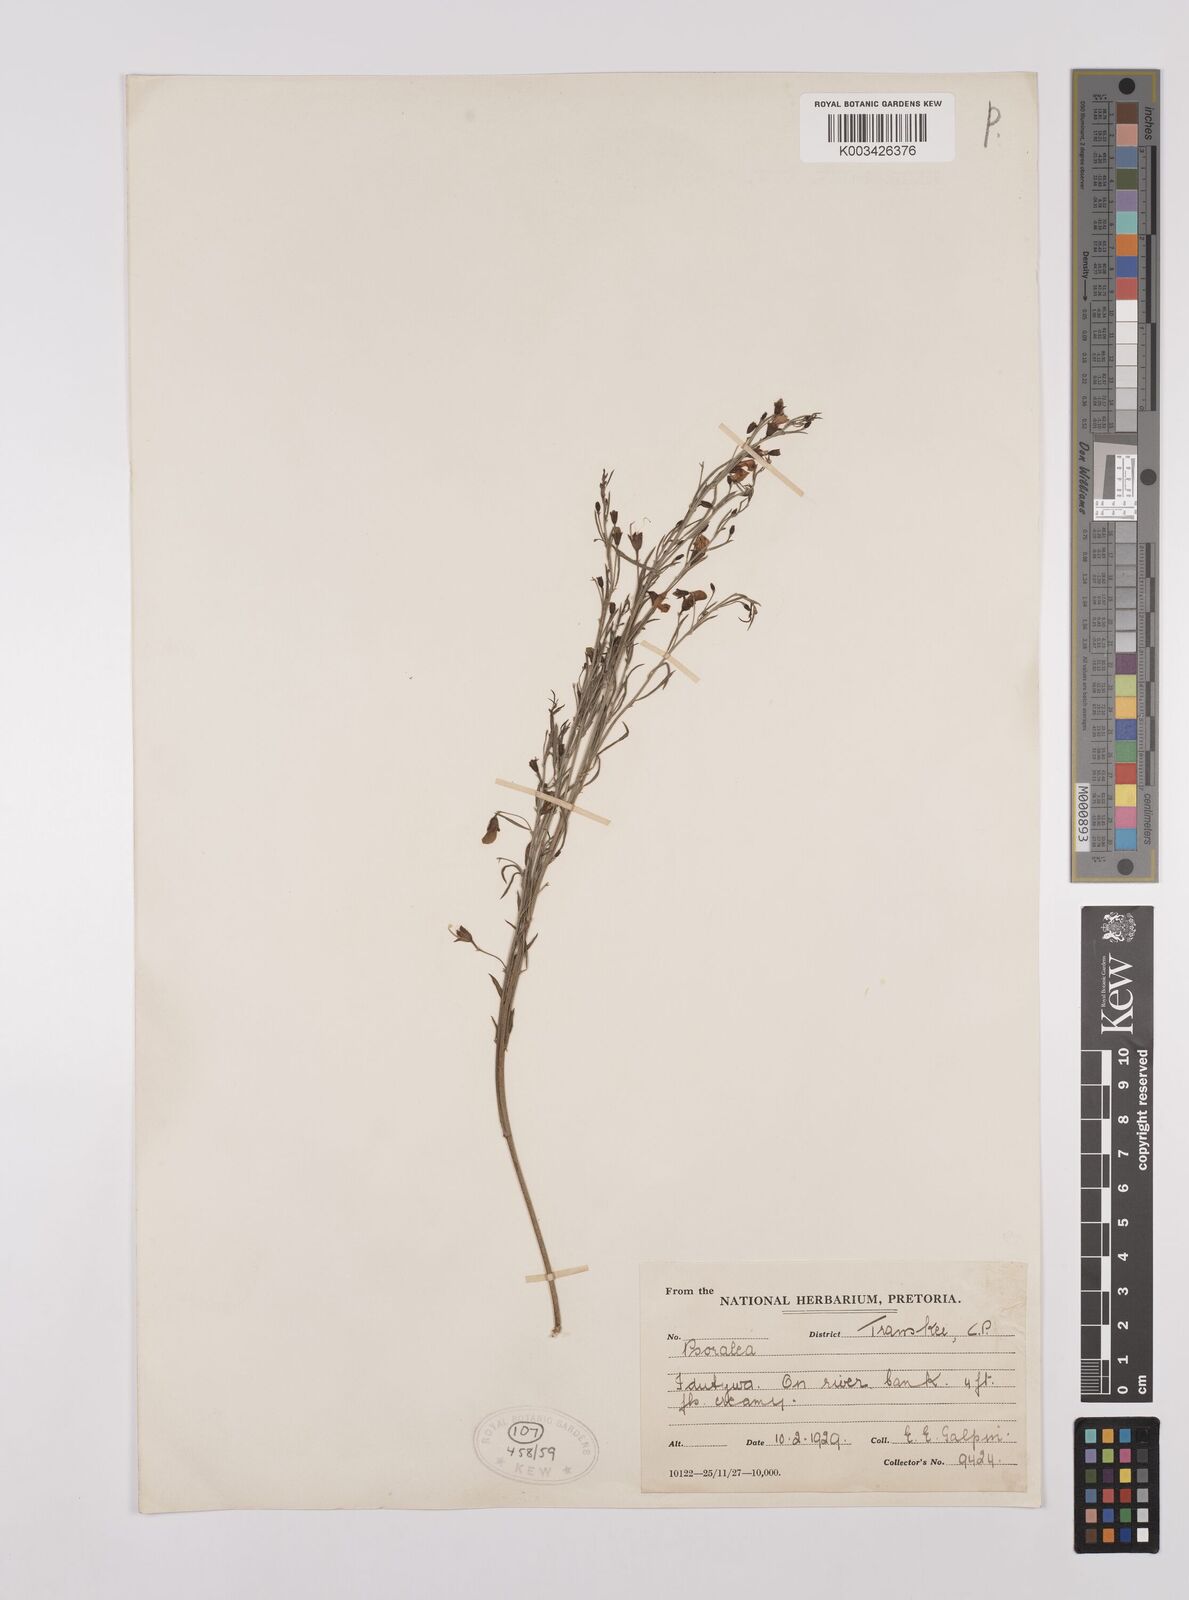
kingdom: Plantae
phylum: Tracheophyta
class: Magnoliopsida
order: Fabales
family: Fabaceae
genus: Psoralea
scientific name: Psoralea rhizotoma
